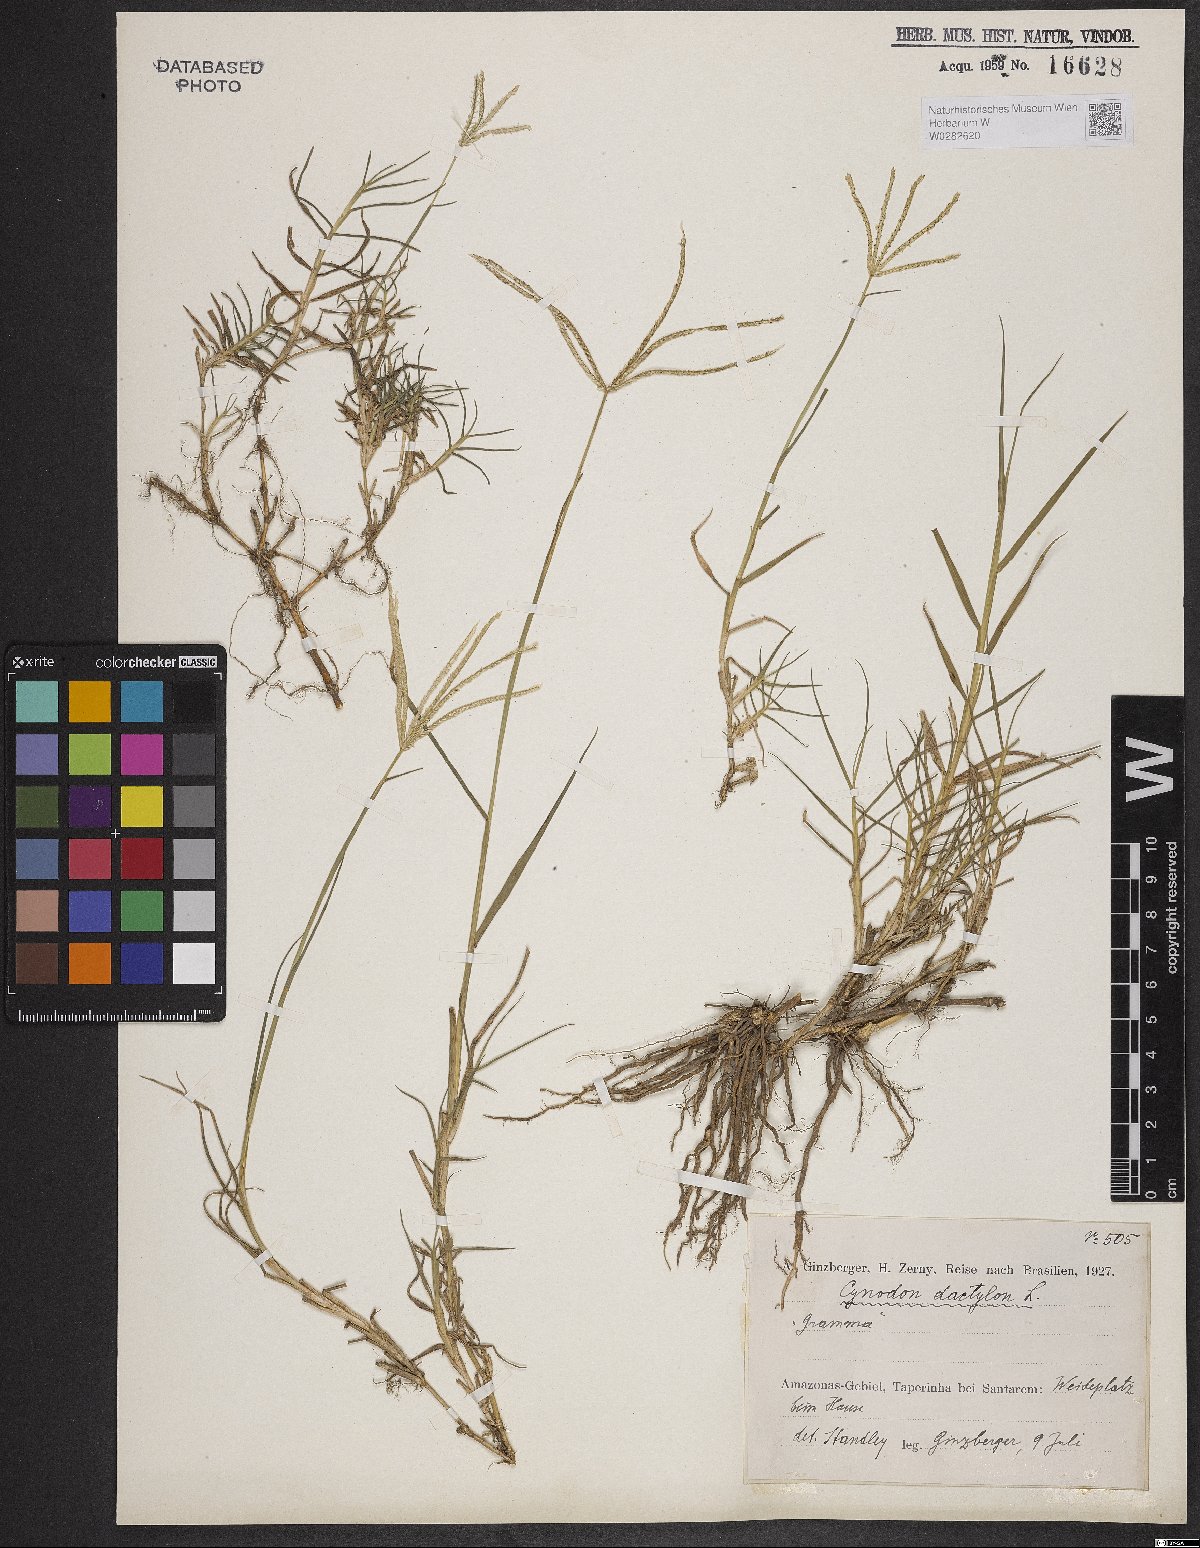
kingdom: Plantae
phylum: Tracheophyta
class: Liliopsida
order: Poales
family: Poaceae
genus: Cynodon
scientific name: Cynodon dactylon
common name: Bermuda grass
